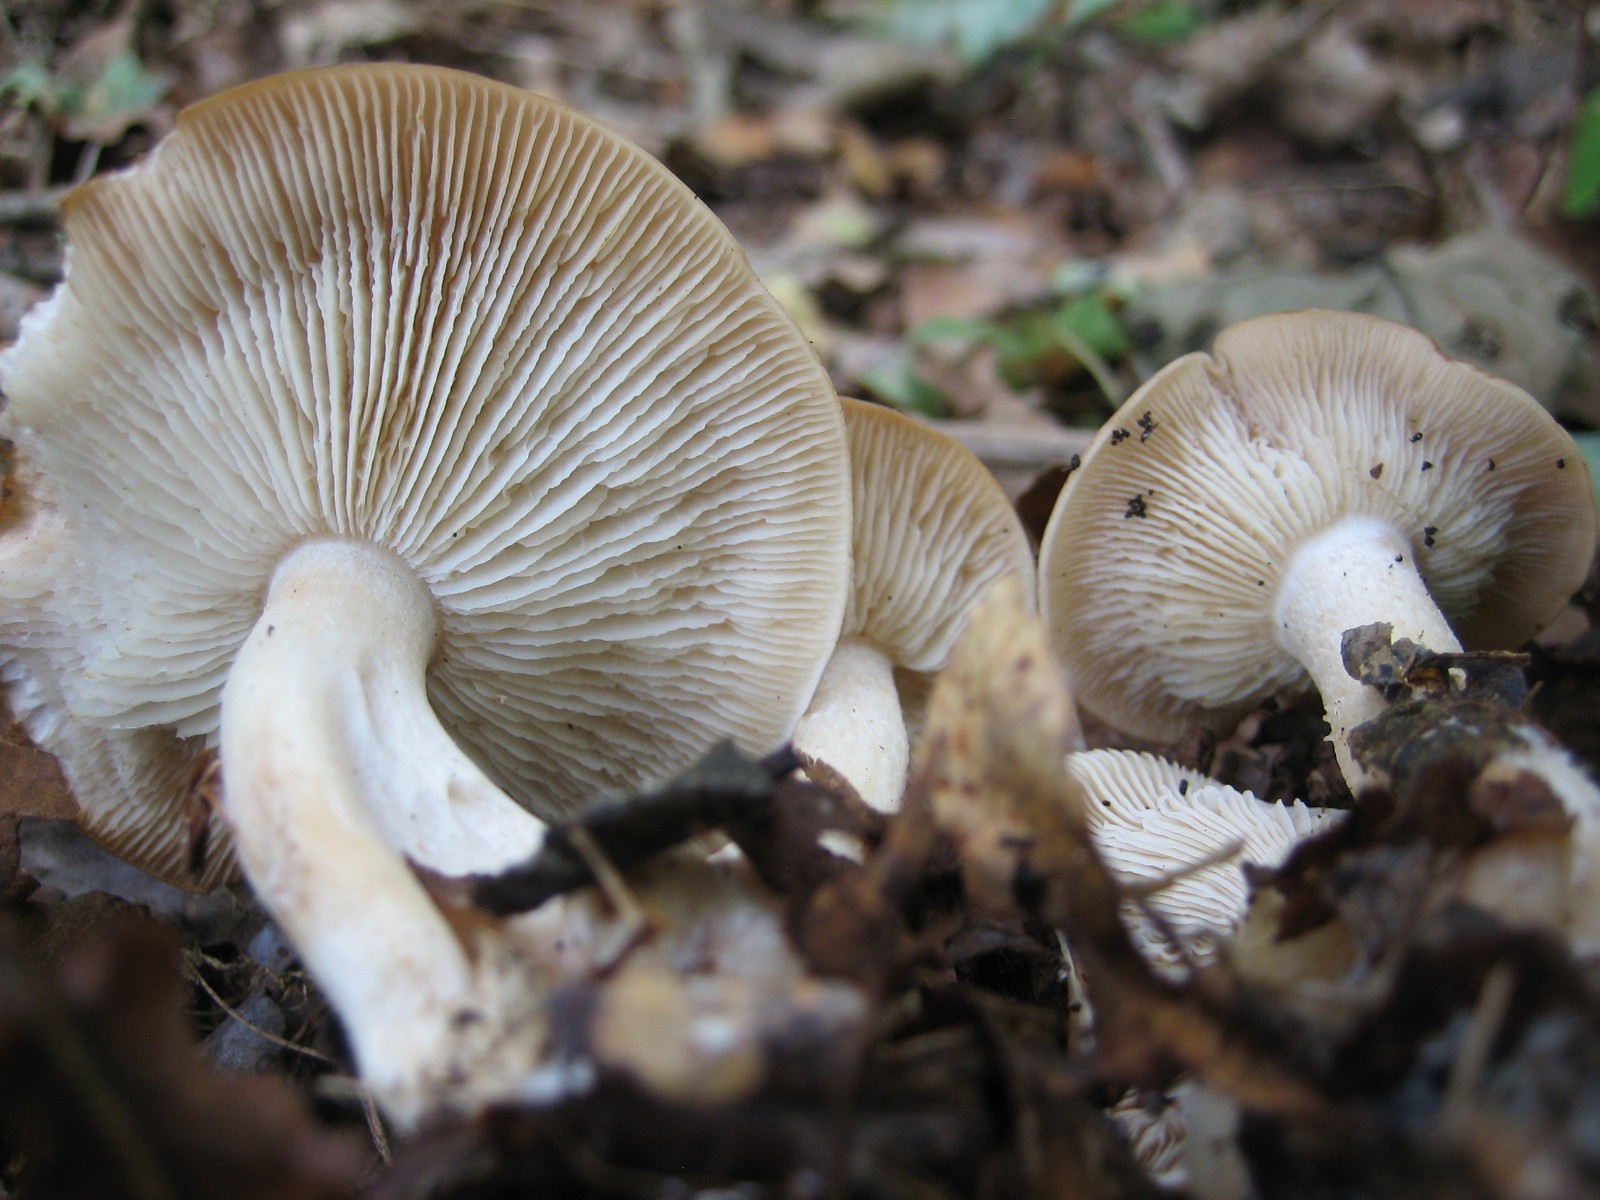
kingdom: Fungi
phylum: Basidiomycota
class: Agaricomycetes
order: Agaricales
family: Lyophyllaceae
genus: Gerhardtia
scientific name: Gerhardtia borealis
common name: rosabrun fagerhat
